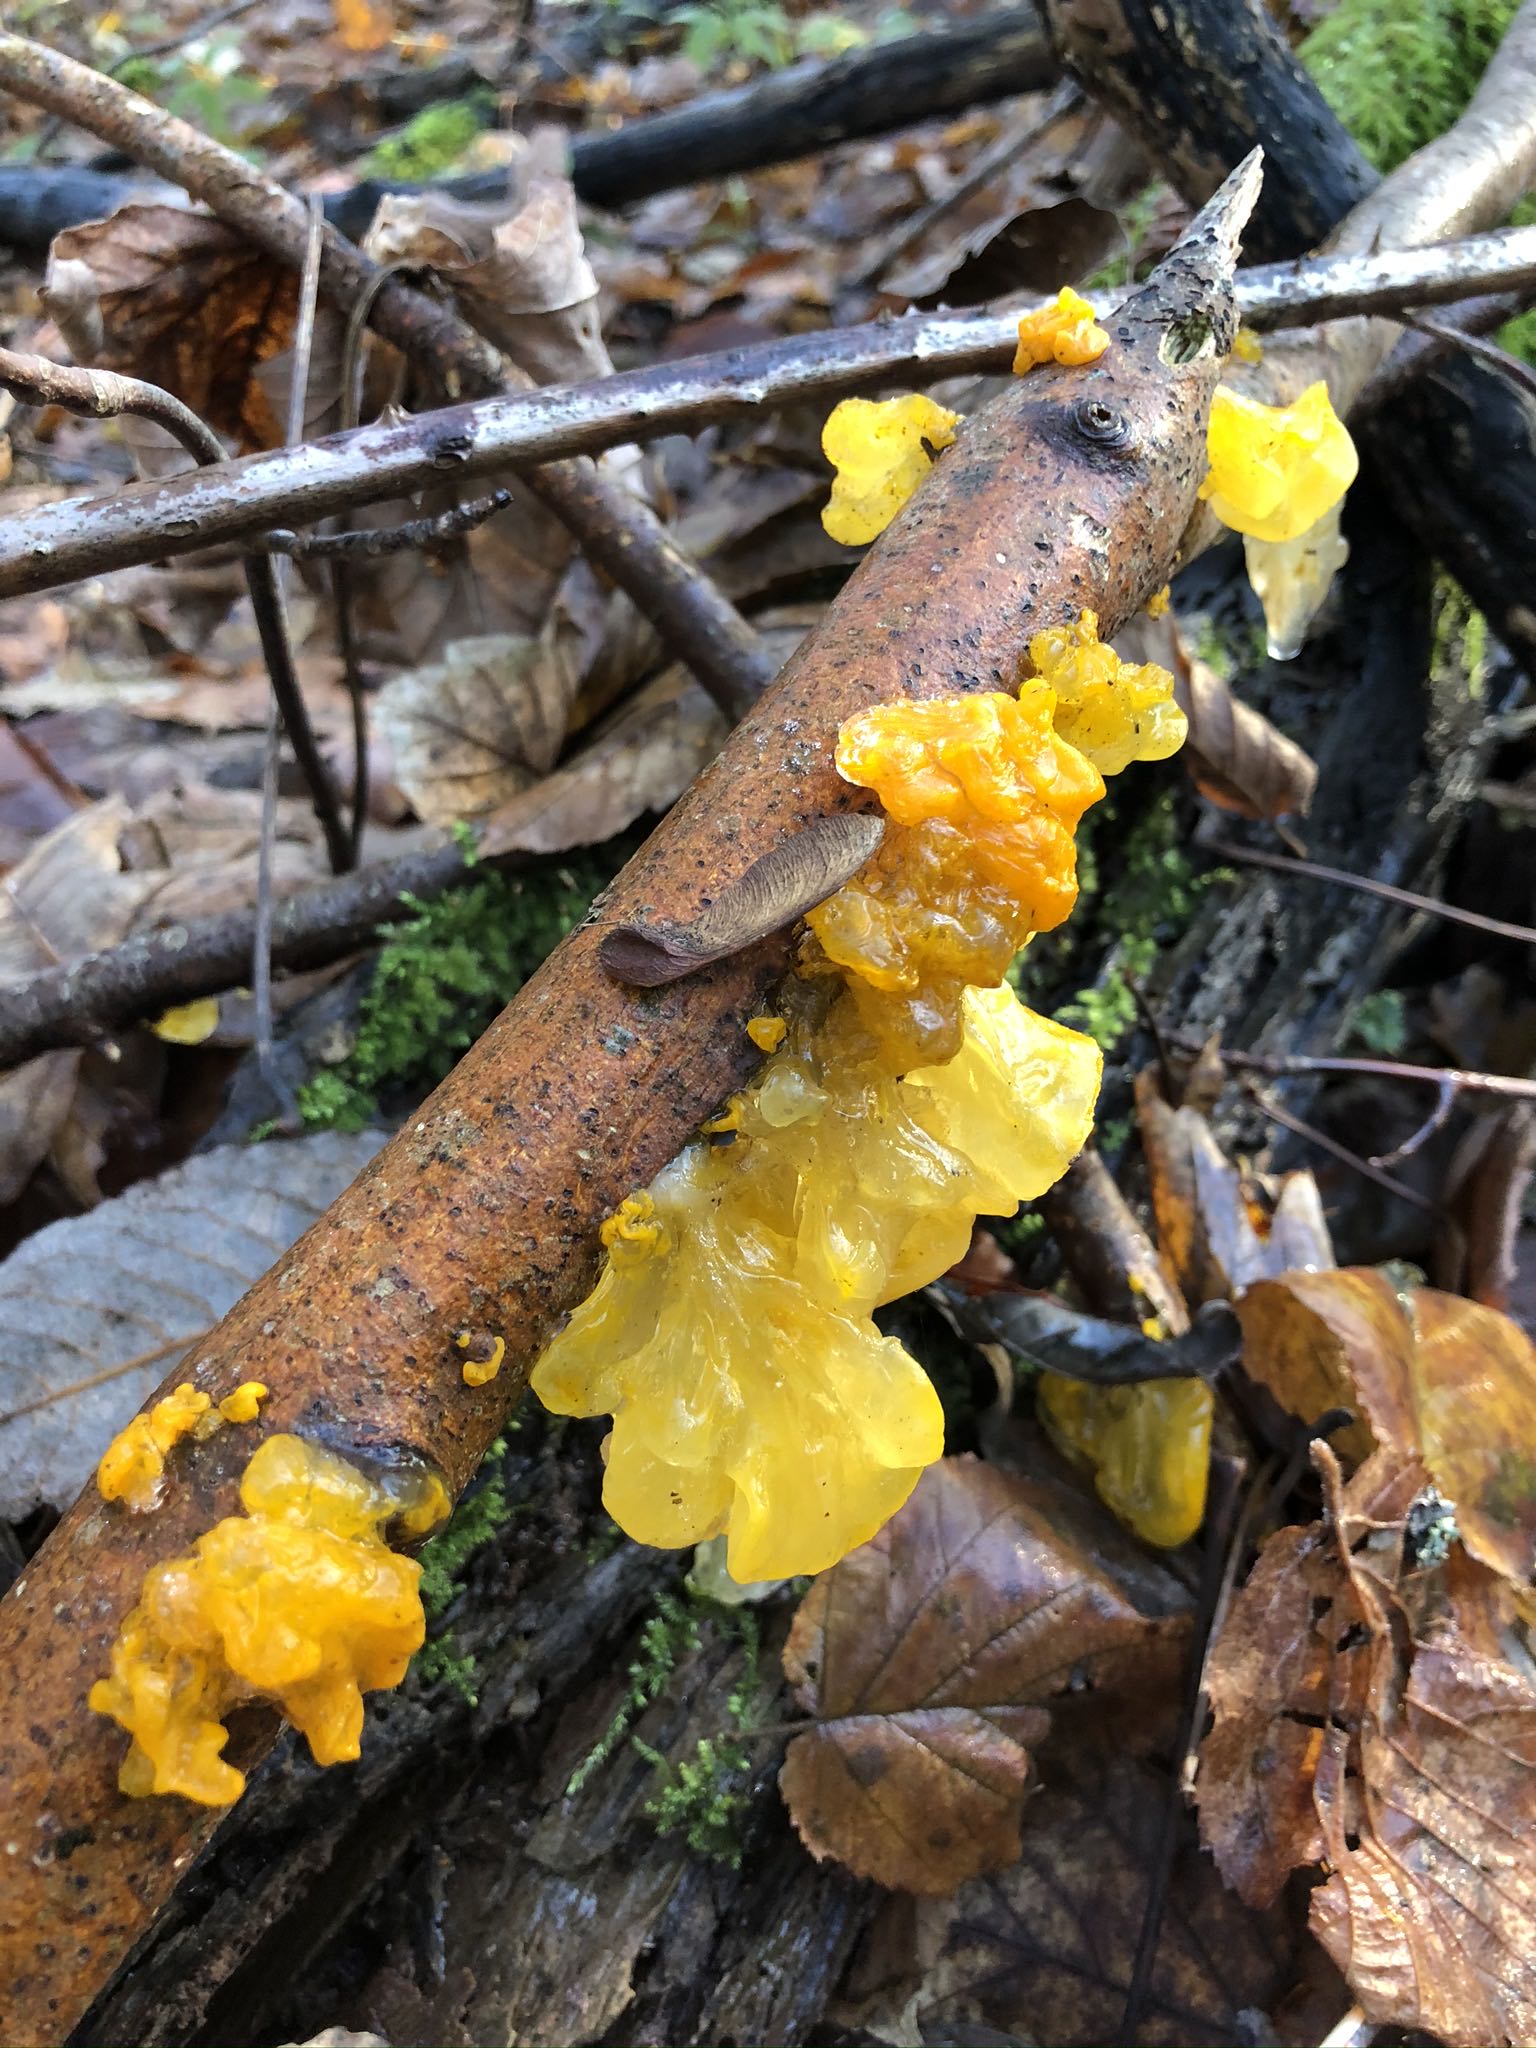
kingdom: Fungi
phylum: Basidiomycota
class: Tremellomycetes
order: Tremellales
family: Tremellaceae
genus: Tremella
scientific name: Tremella mesenterica
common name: gul bævresvamp
